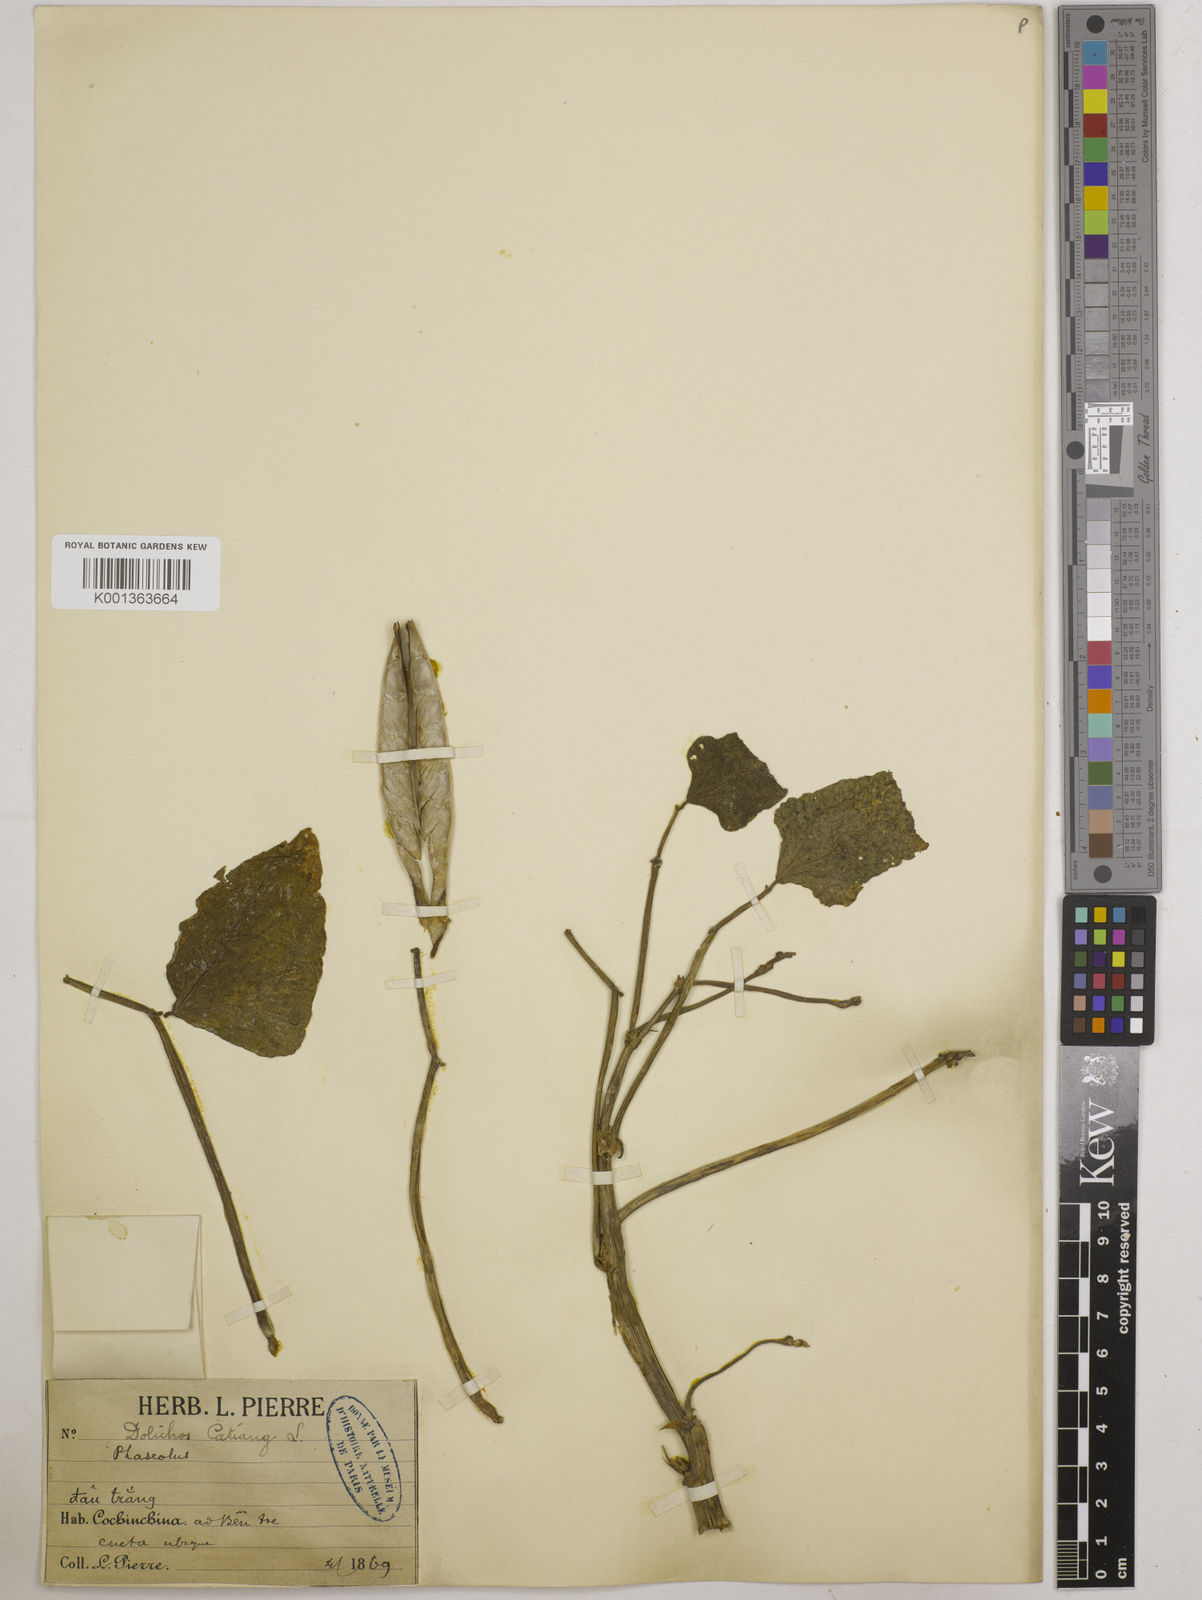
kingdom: Plantae
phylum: Tracheophyta
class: Magnoliopsida
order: Fabales
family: Fabaceae
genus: Vigna
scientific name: Vigna unguiculata
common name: Cowpea
